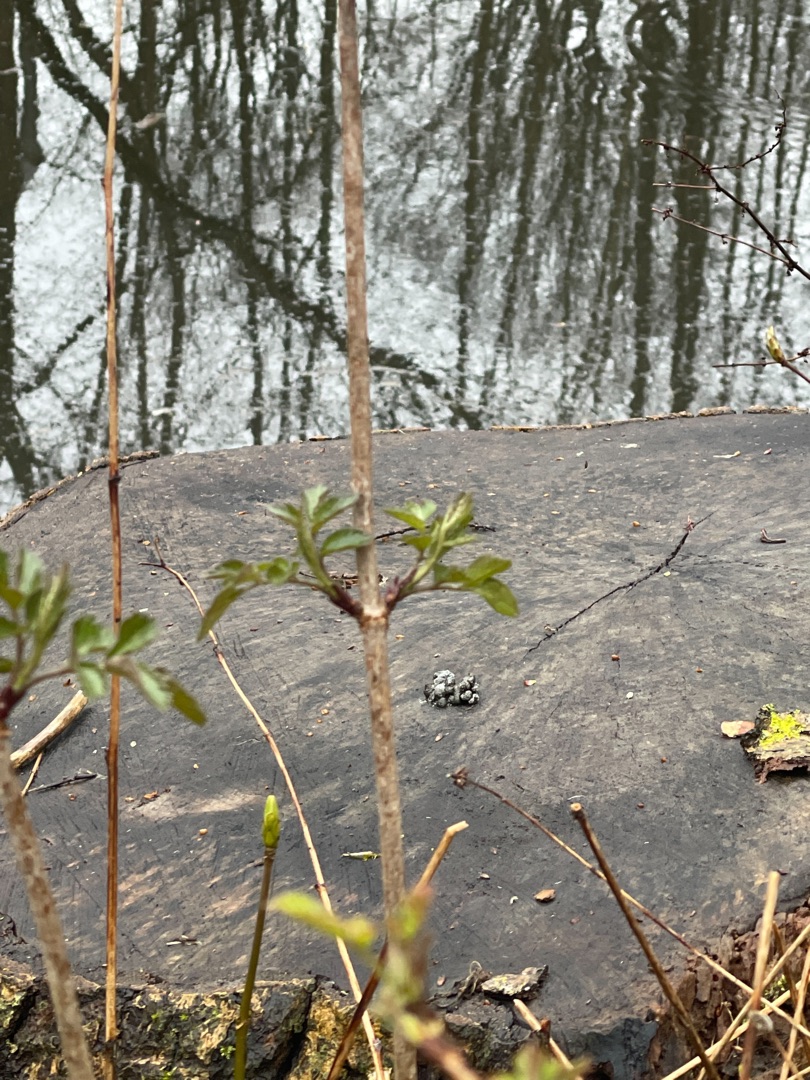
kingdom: Plantae
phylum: Tracheophyta
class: Magnoliopsida
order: Dipsacales
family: Viburnaceae
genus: Sambucus
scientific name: Sambucus nigra
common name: Almindelig hyld
